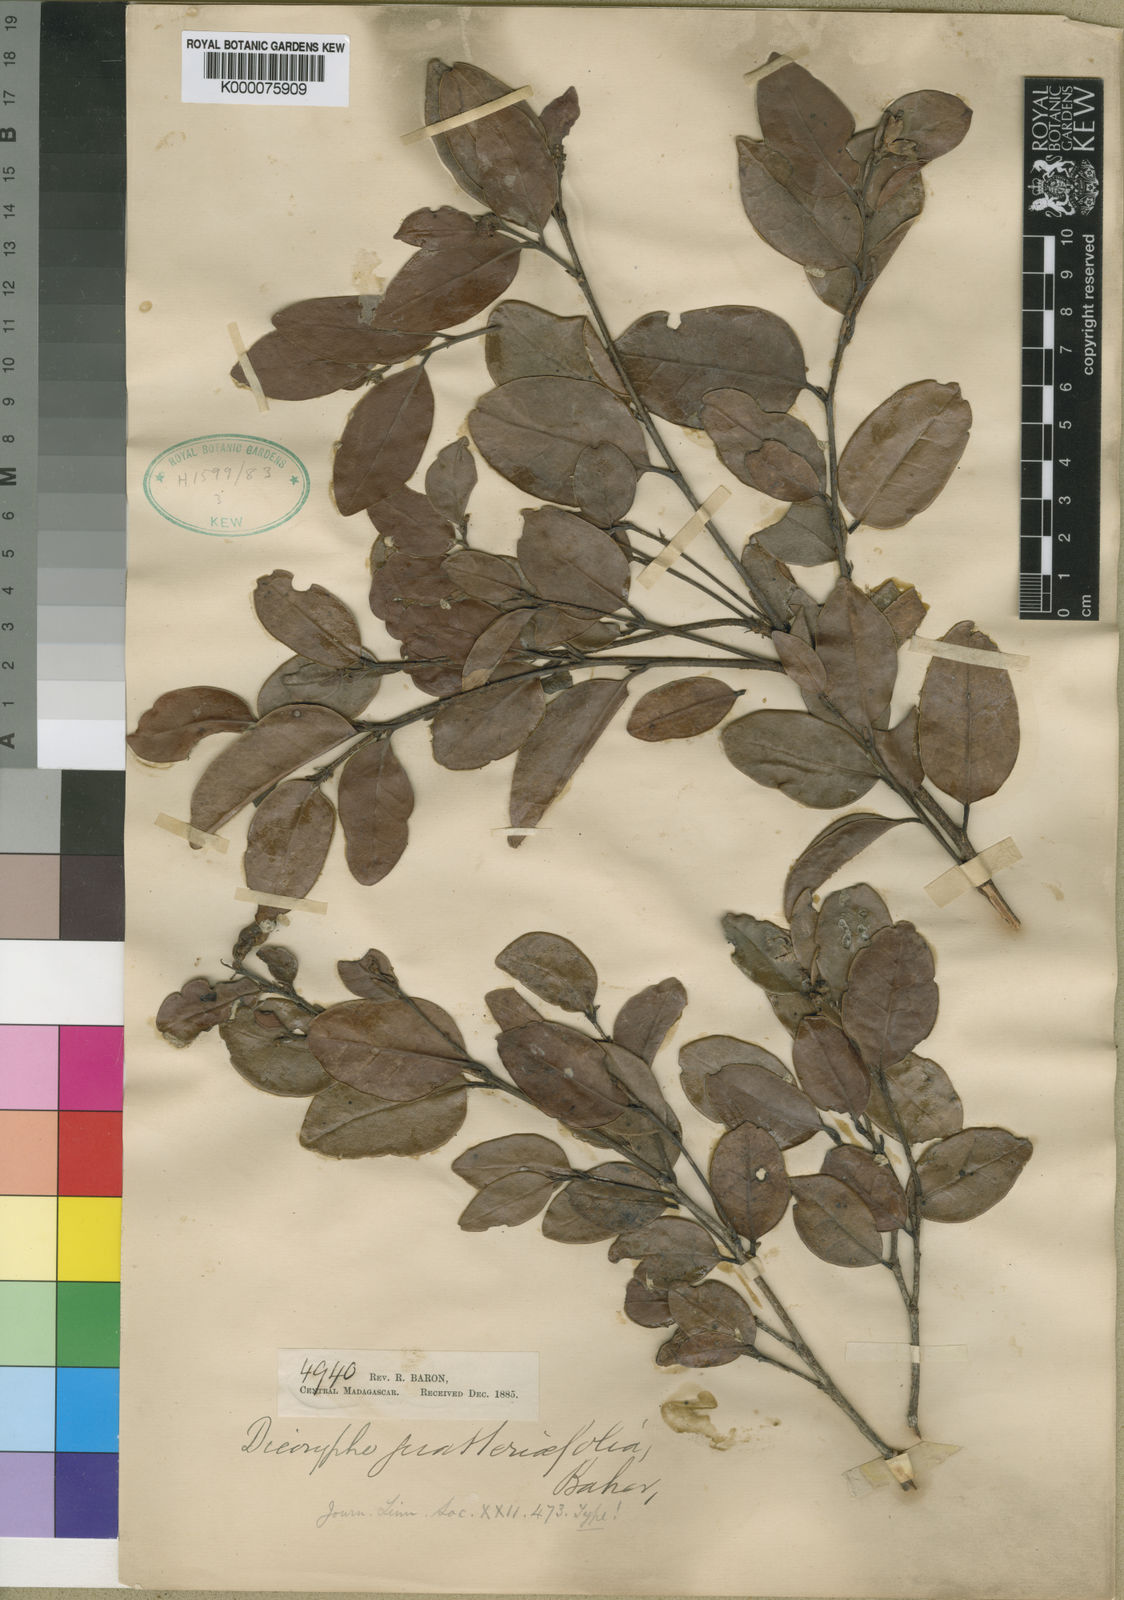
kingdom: Plantae
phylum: Tracheophyta
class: Magnoliopsida
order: Saxifragales
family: Hamamelidaceae
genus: Dicoryphe
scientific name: Dicoryphe
